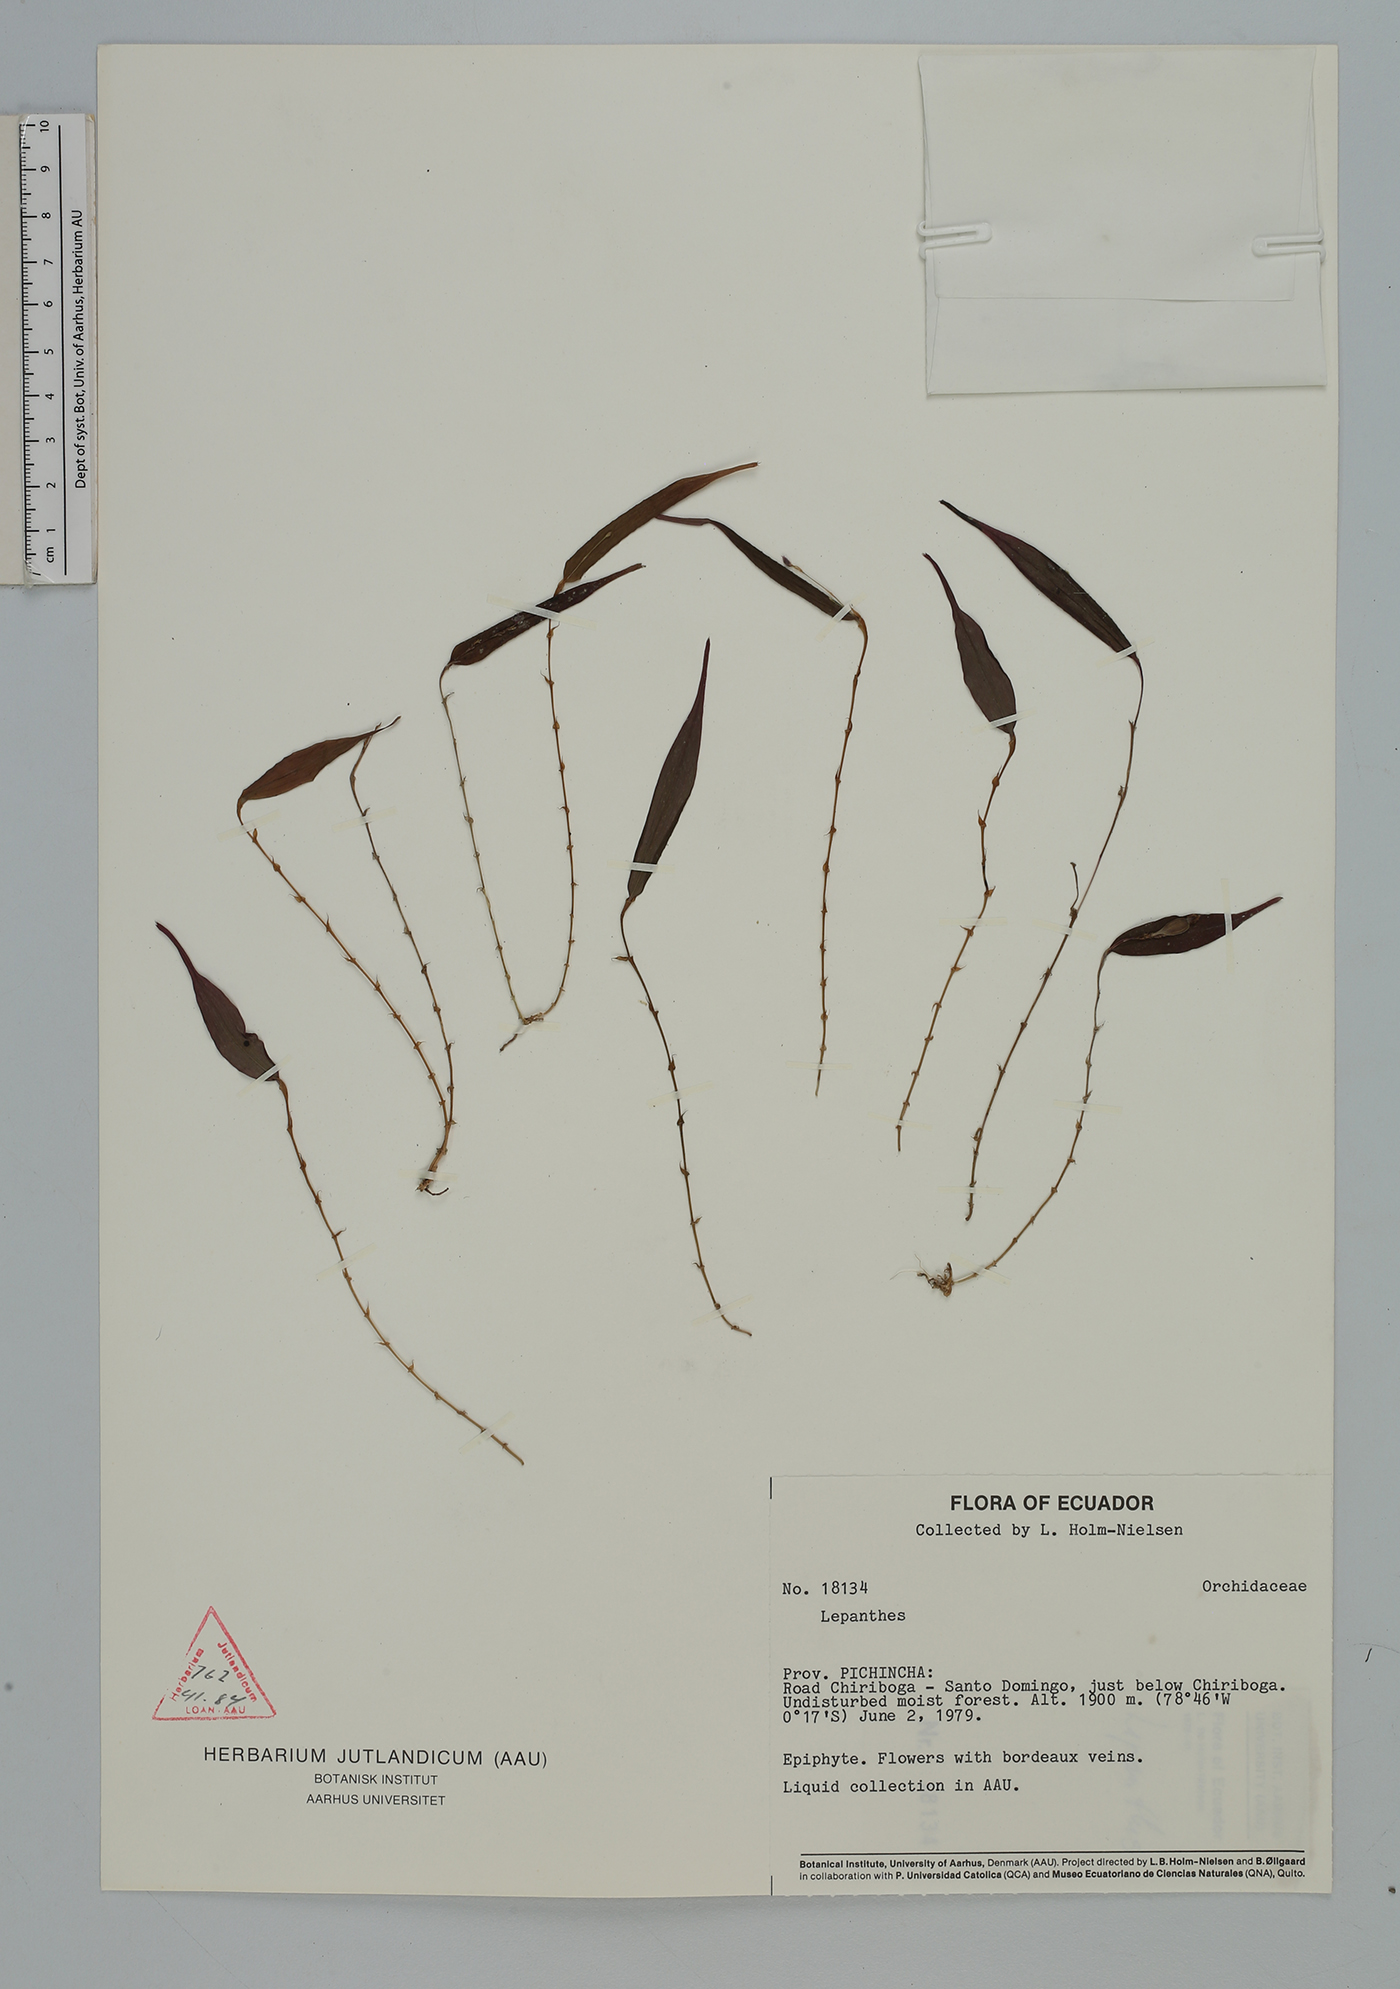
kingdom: Plantae
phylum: Tracheophyta
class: Liliopsida
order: Asparagales
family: Orchidaceae
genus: Lepanthes
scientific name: Lepanthes
